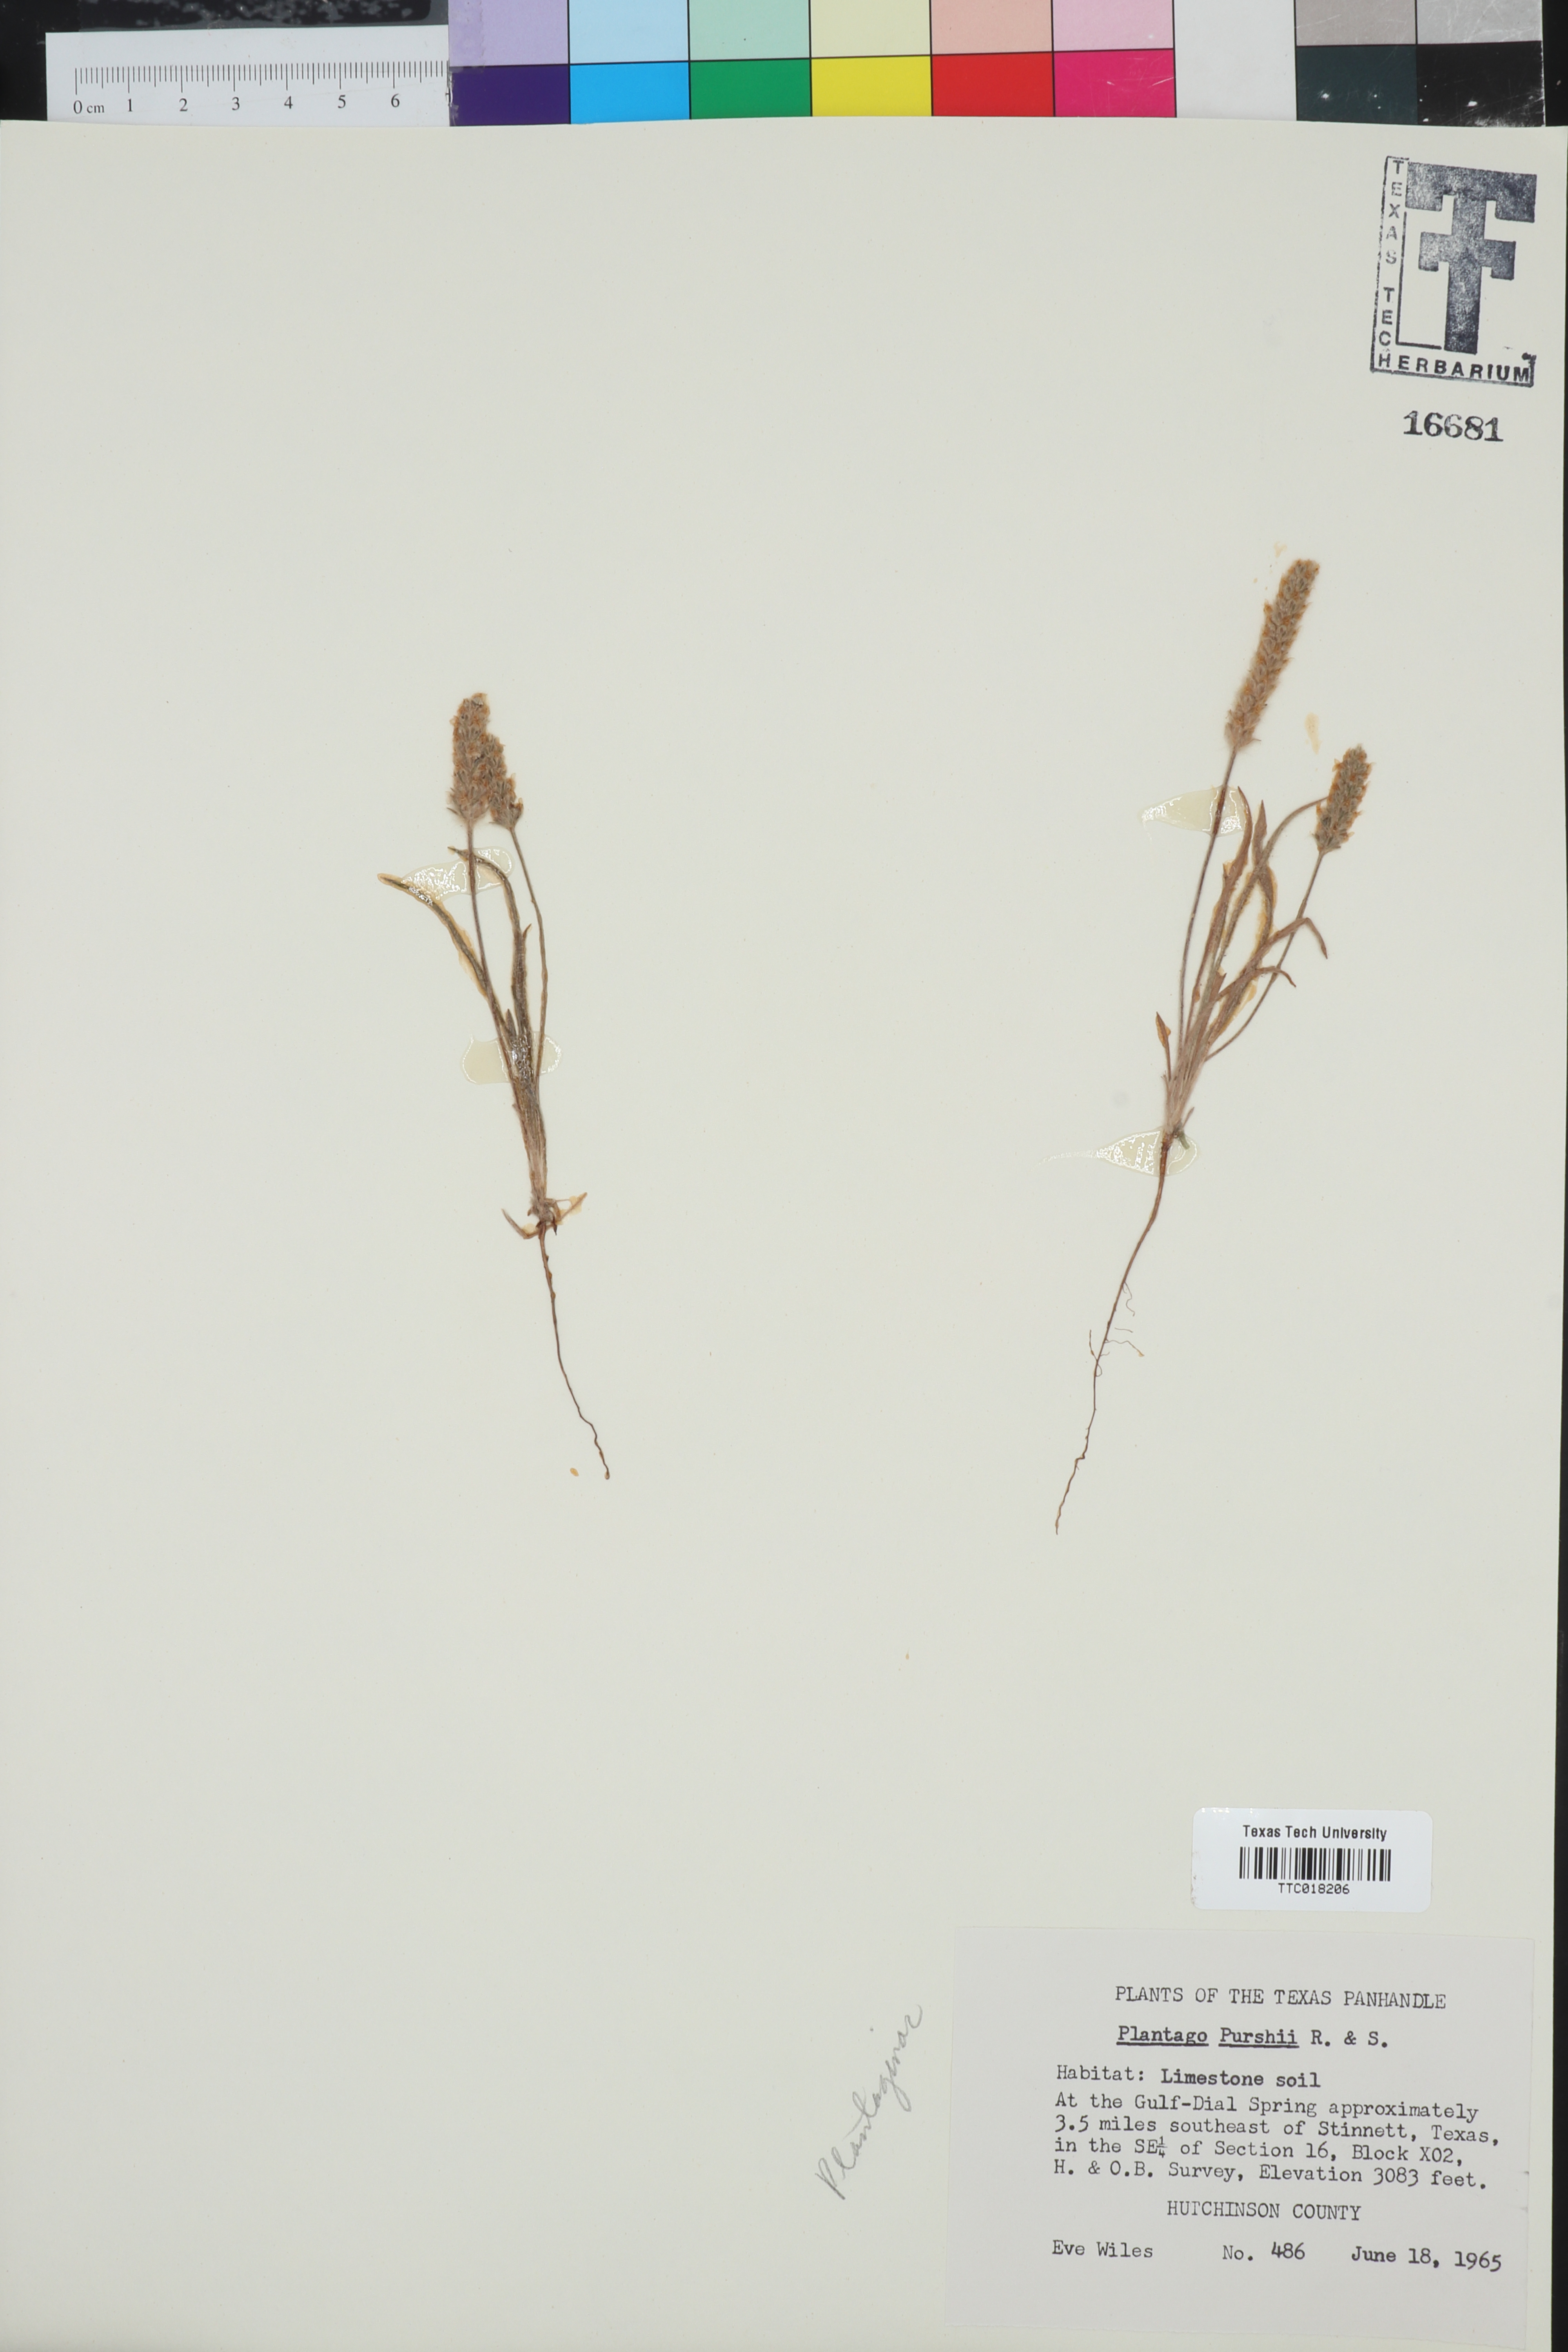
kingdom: Plantae
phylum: Tracheophyta
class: Magnoliopsida
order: Lamiales
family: Plantaginaceae
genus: Plantago
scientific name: Plantago patagonica
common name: Patagonia indian-wheat
